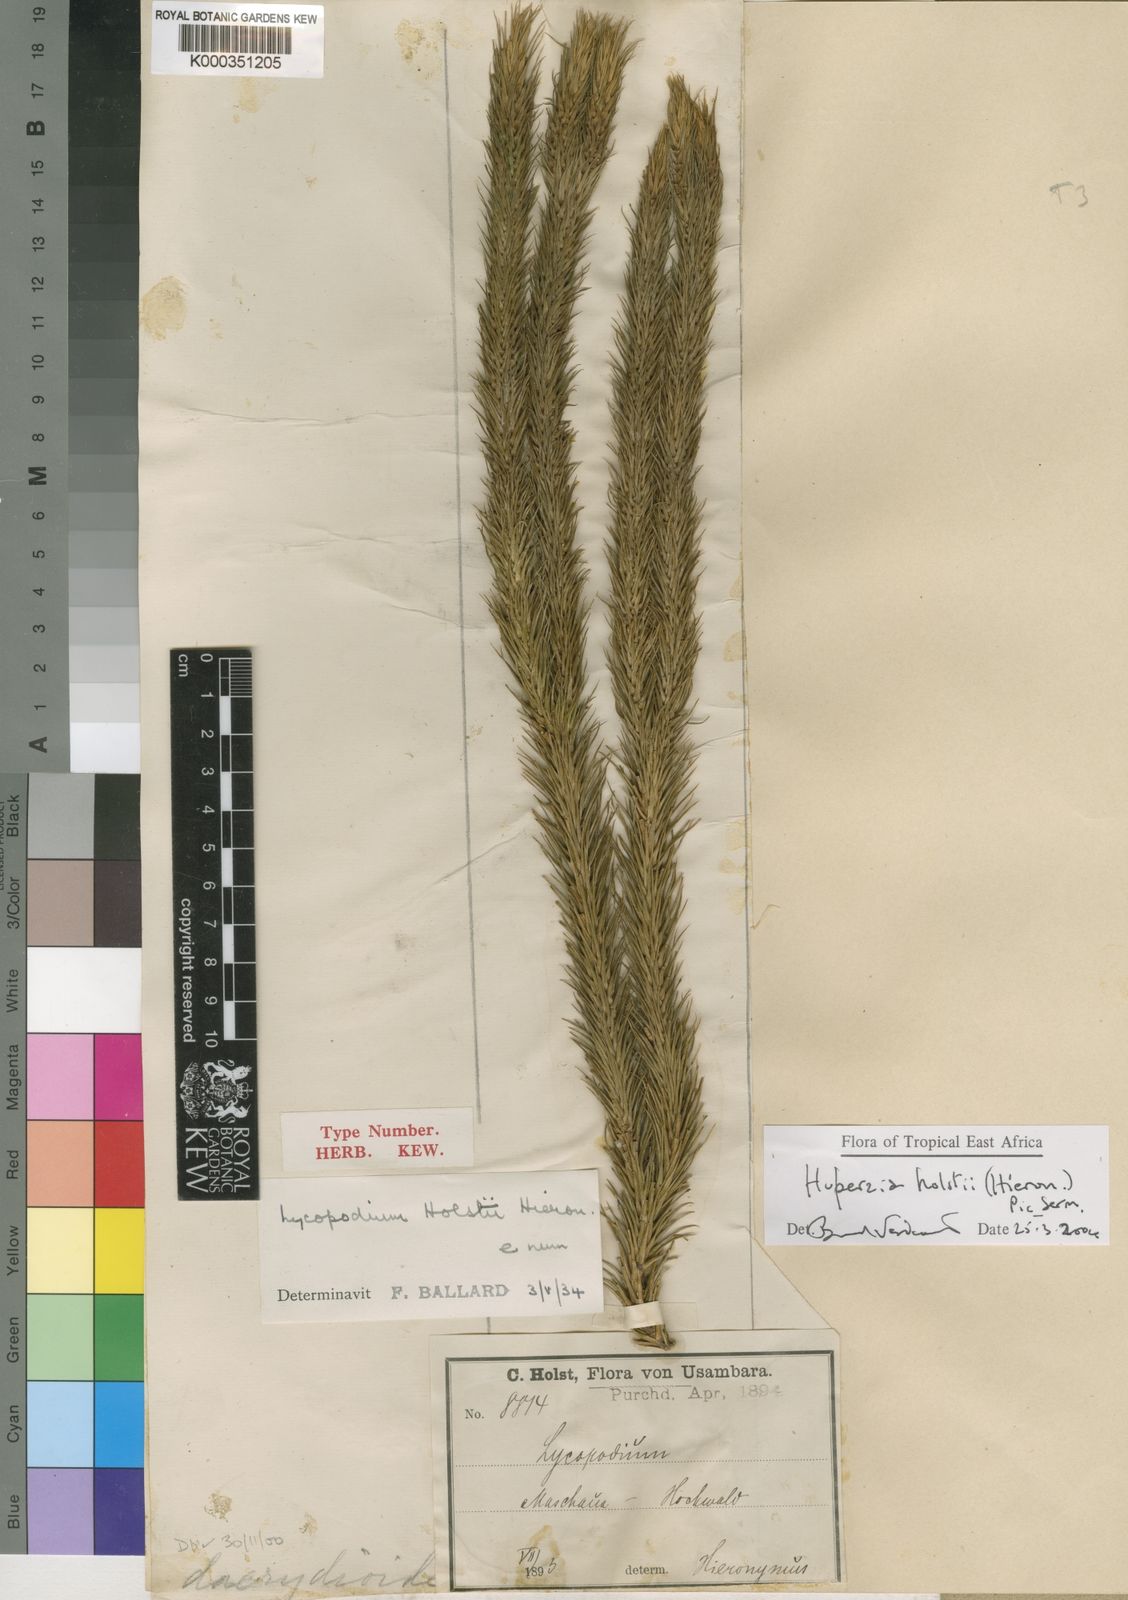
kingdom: Plantae
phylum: Tracheophyta
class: Lycopodiopsida
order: Lycopodiales
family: Lycopodiaceae
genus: Phlegmariurus
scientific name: Phlegmariurus holstii
